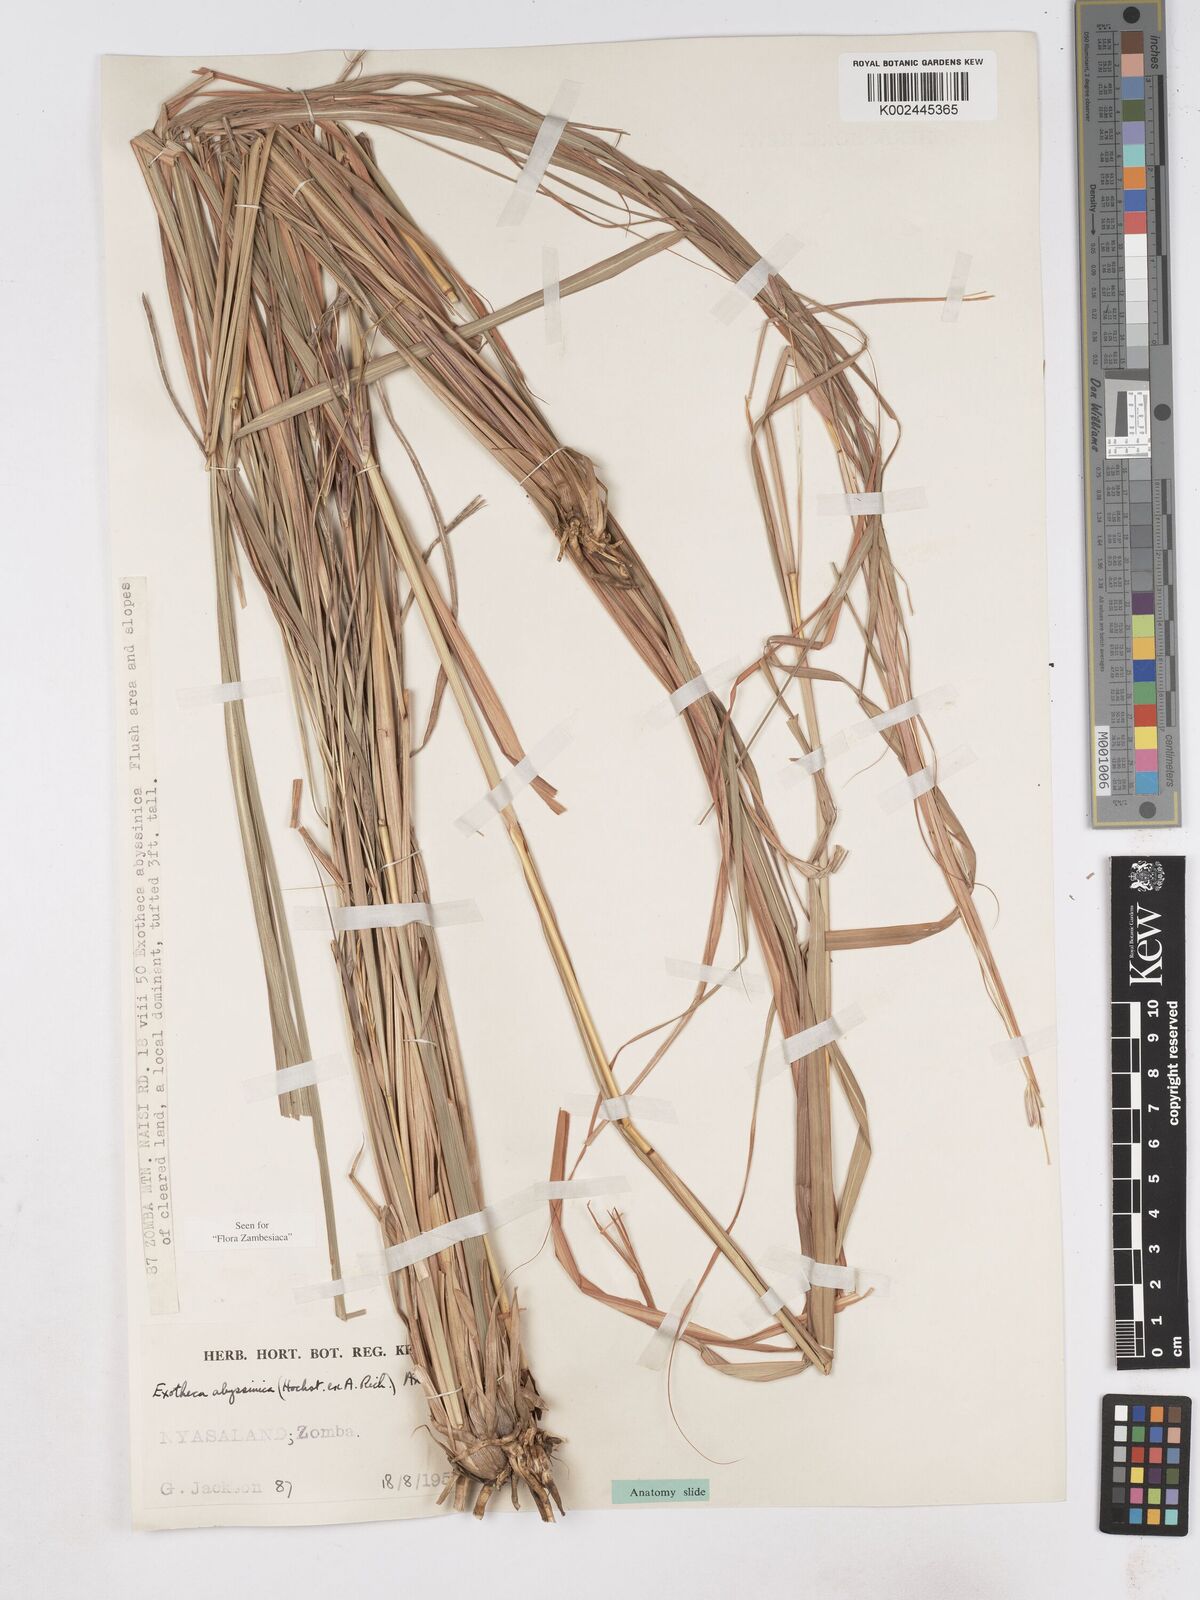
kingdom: Plantae
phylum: Tracheophyta
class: Liliopsida
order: Poales
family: Poaceae
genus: Exotheca
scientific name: Exotheca abyssinica
